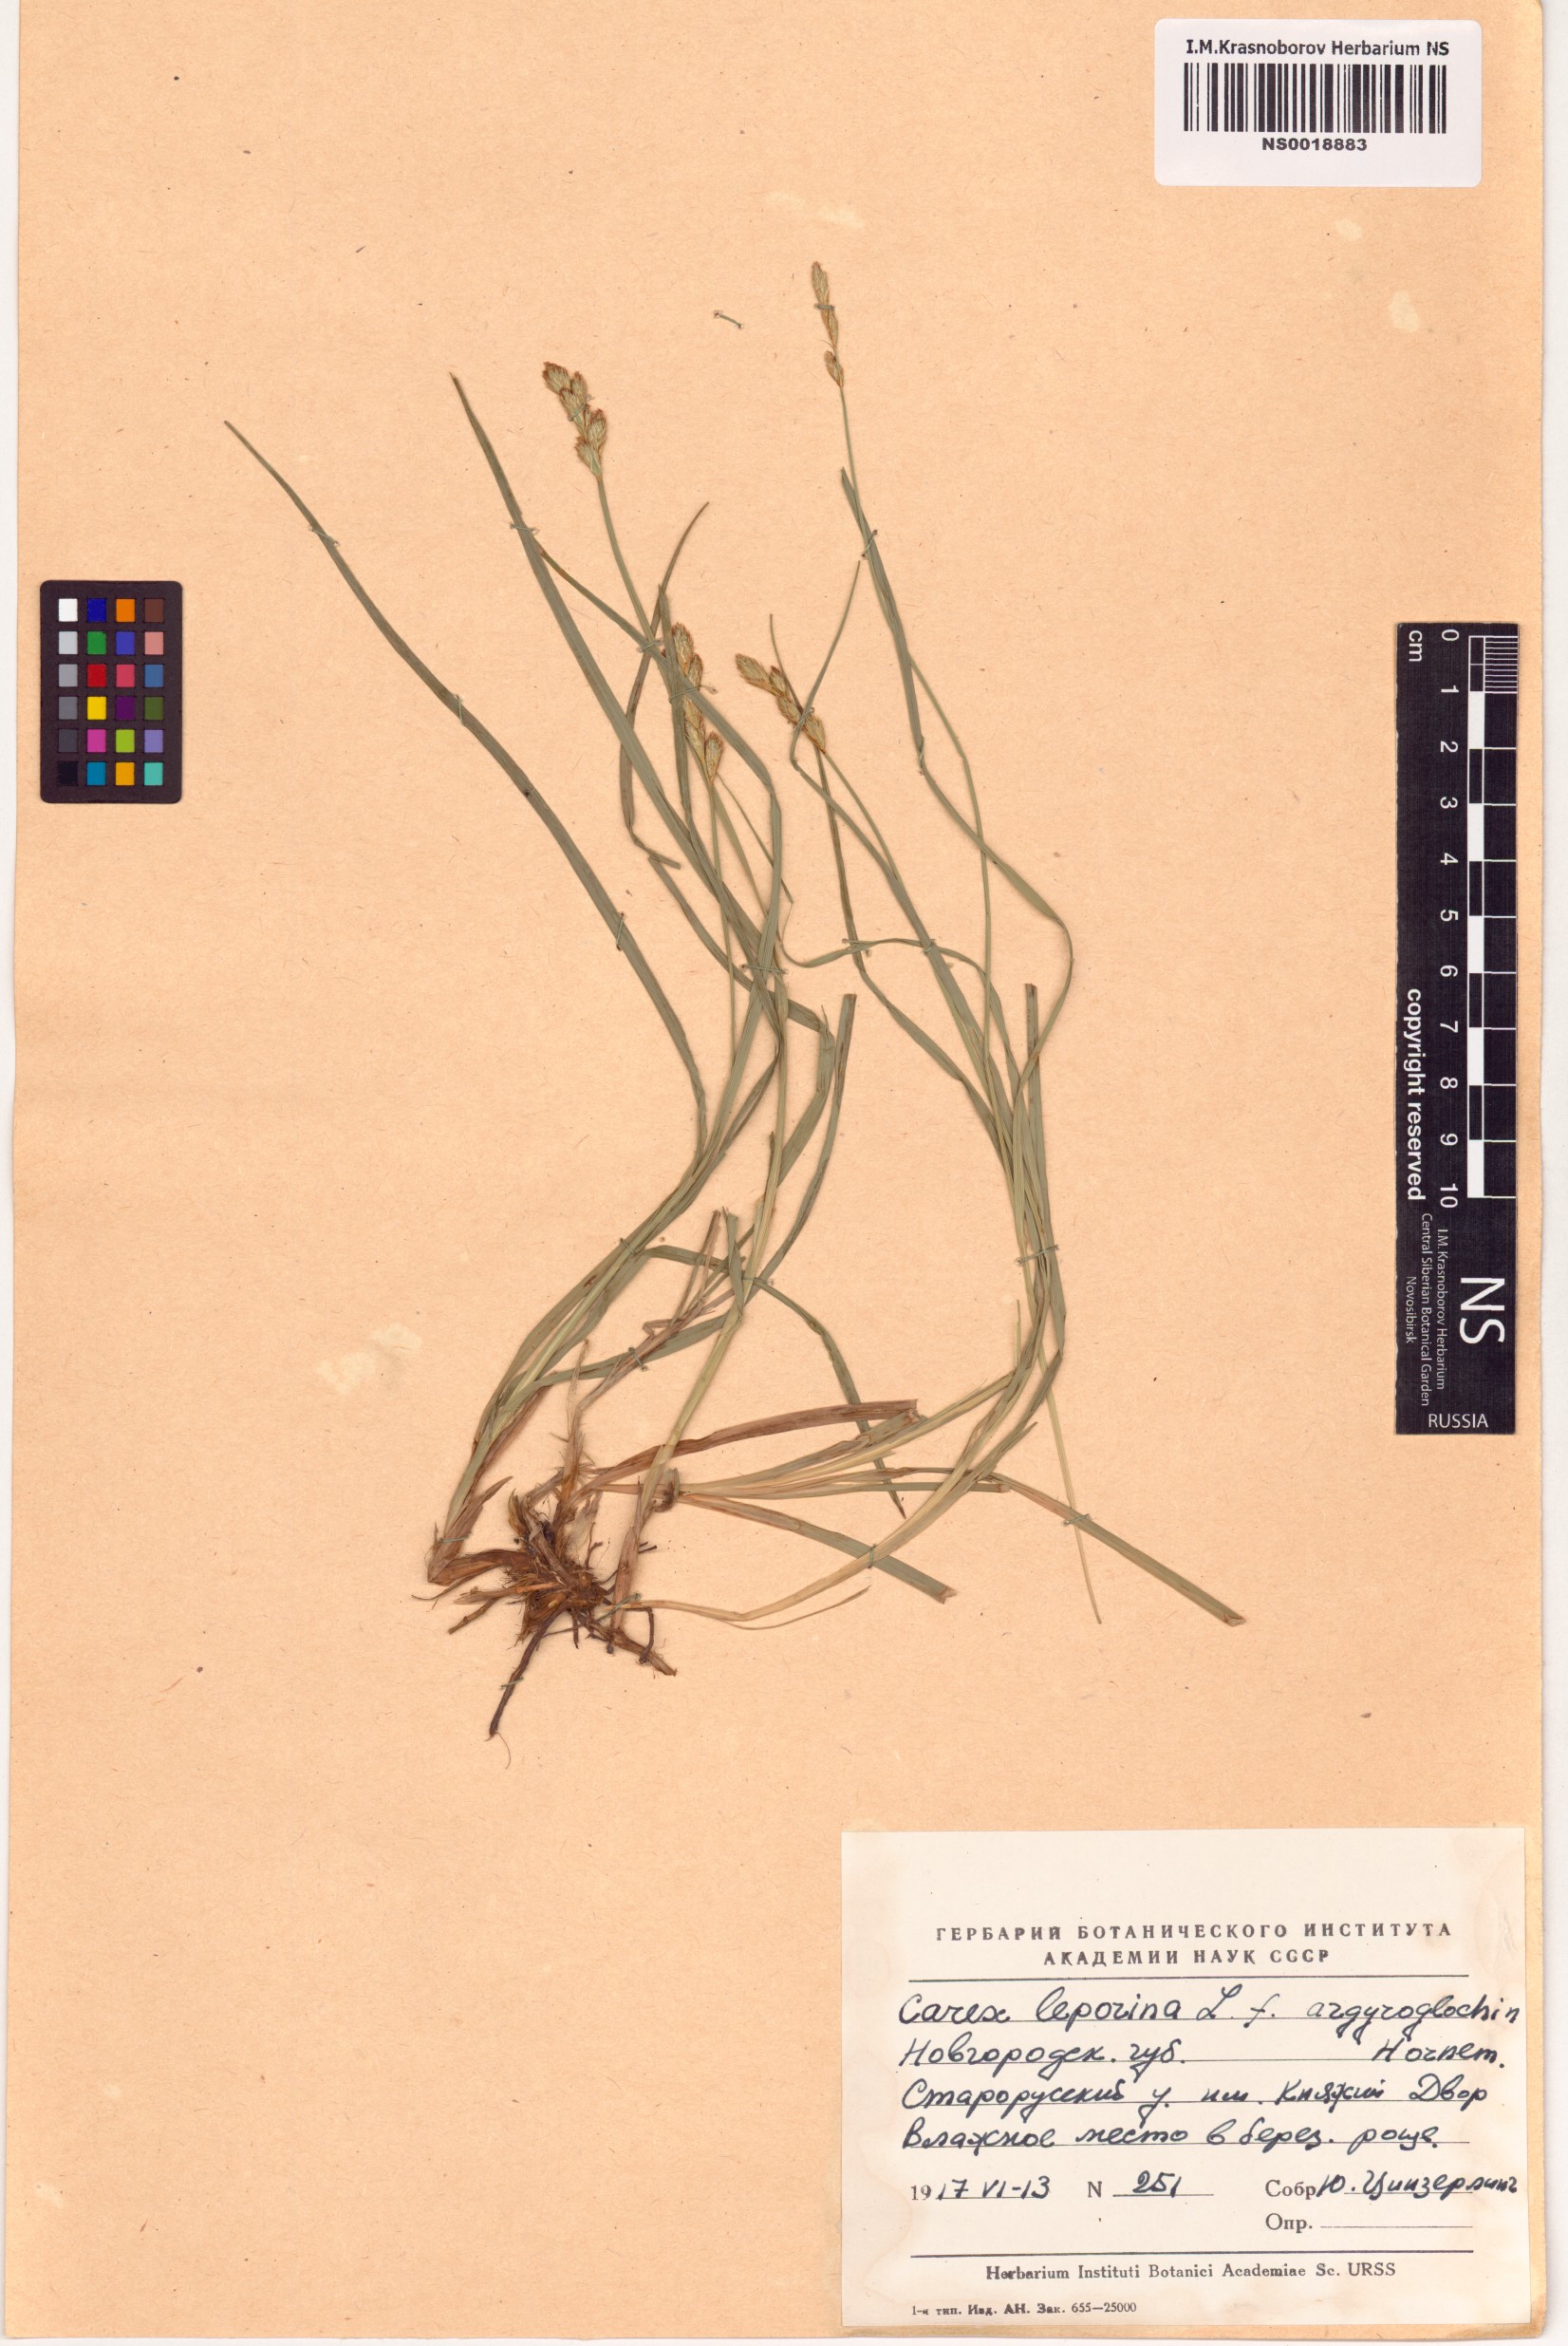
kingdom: Plantae
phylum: Tracheophyta
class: Liliopsida
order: Poales
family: Cyperaceae
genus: Carex
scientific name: Carex leporina
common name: Oval sedge
